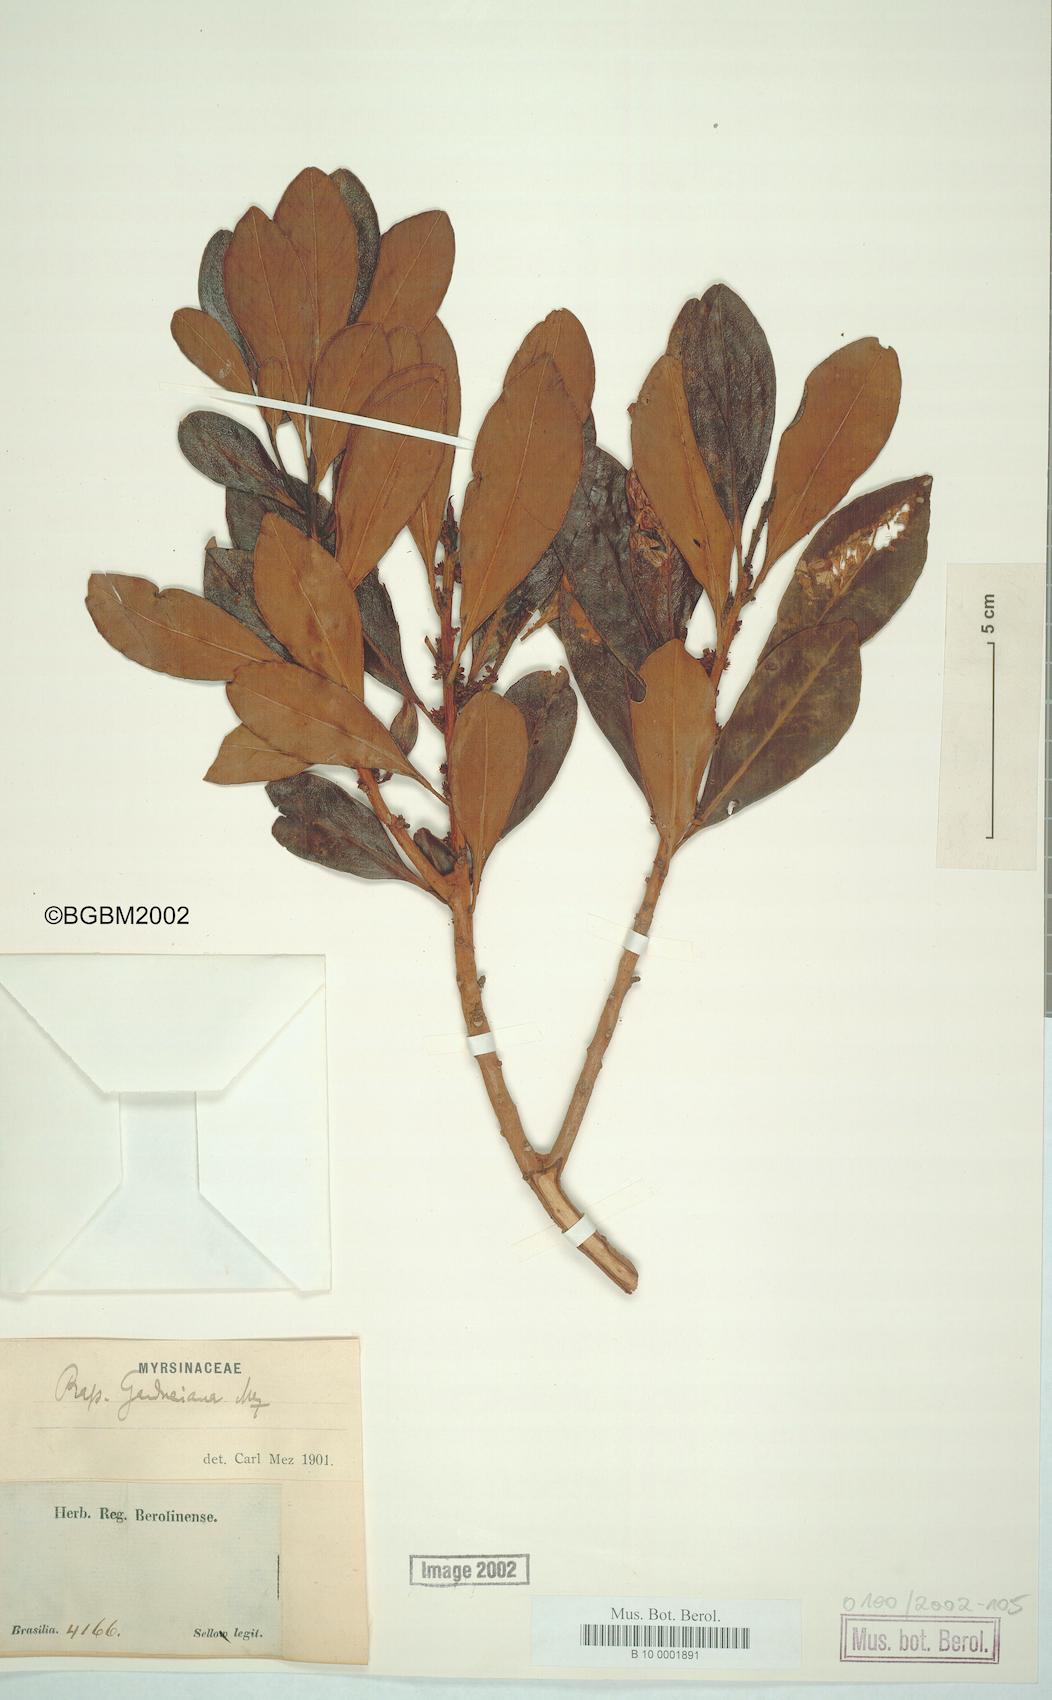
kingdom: Plantae
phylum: Tracheophyta
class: Magnoliopsida
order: Ericales
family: Primulaceae
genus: Myrsine
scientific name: Myrsine gardneriana
